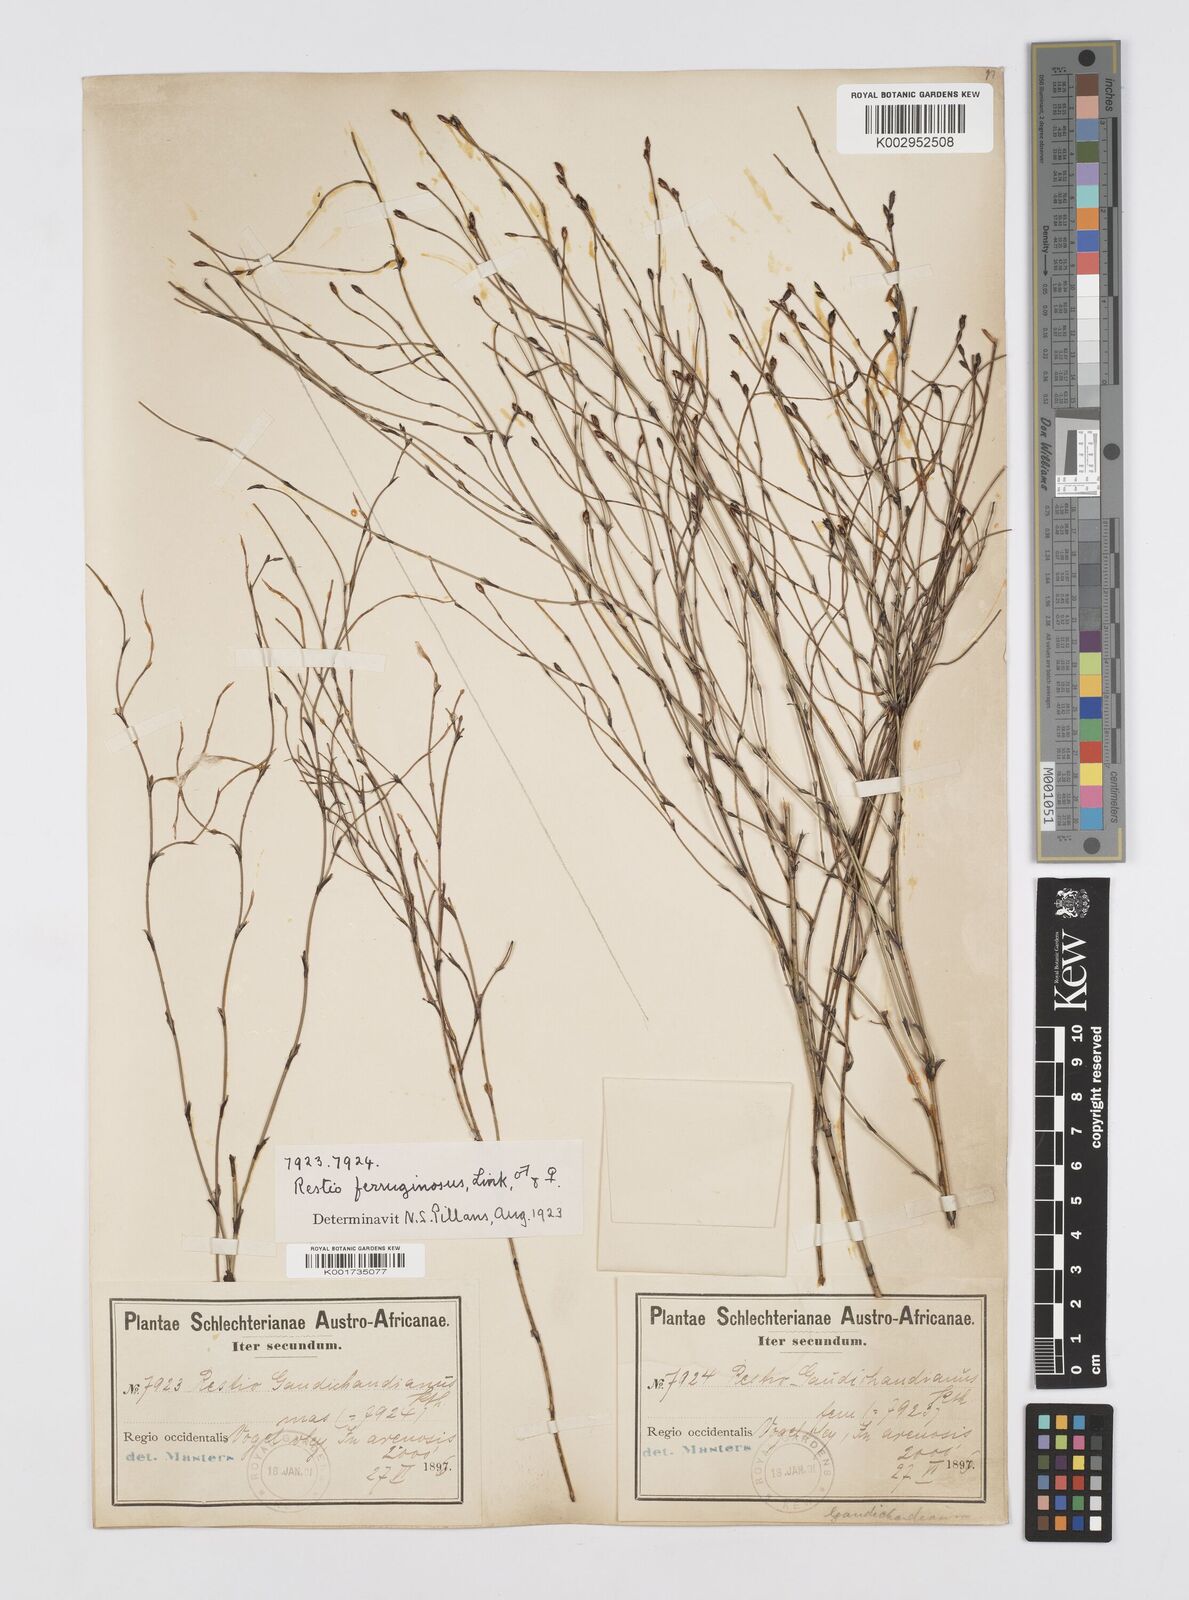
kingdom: Plantae
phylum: Tracheophyta
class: Liliopsida
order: Poales
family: Restionaceae
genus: Restio
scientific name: Restio gaudichaudianus
